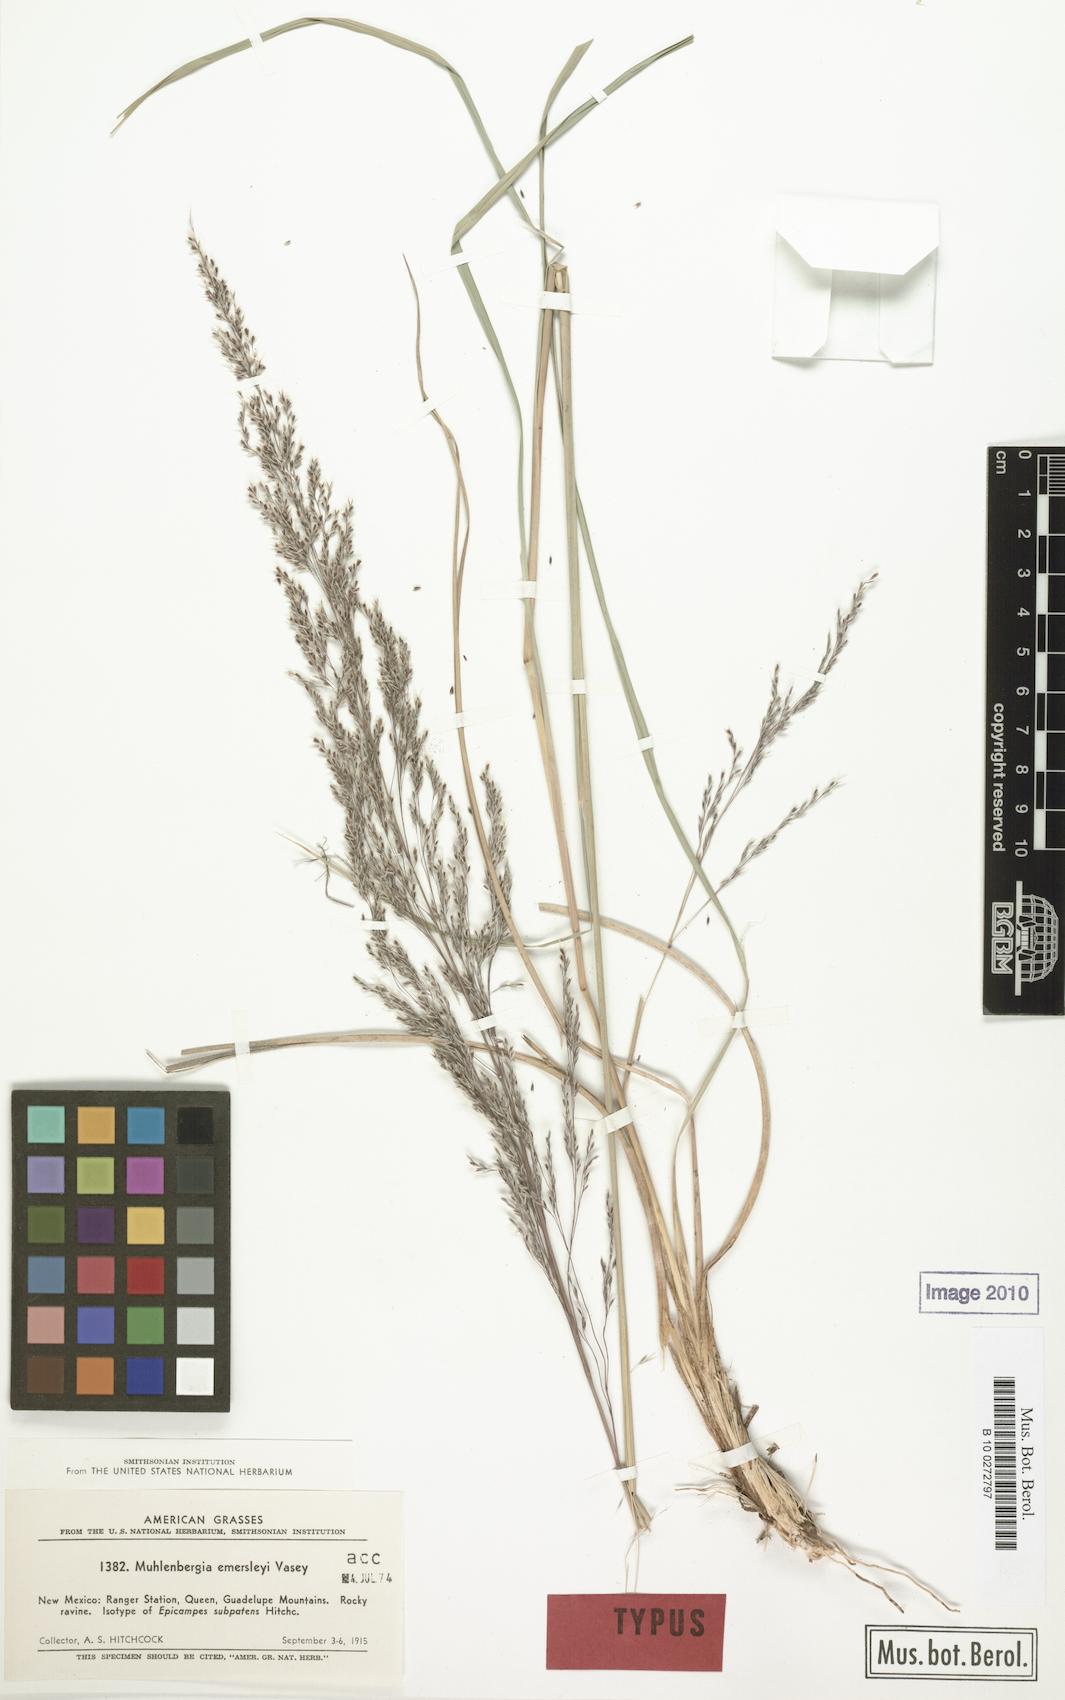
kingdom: Plantae
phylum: Tracheophyta
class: Liliopsida
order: Poales
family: Poaceae
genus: Muhlenbergia
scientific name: Muhlenbergia emersleyi
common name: Bull grass
